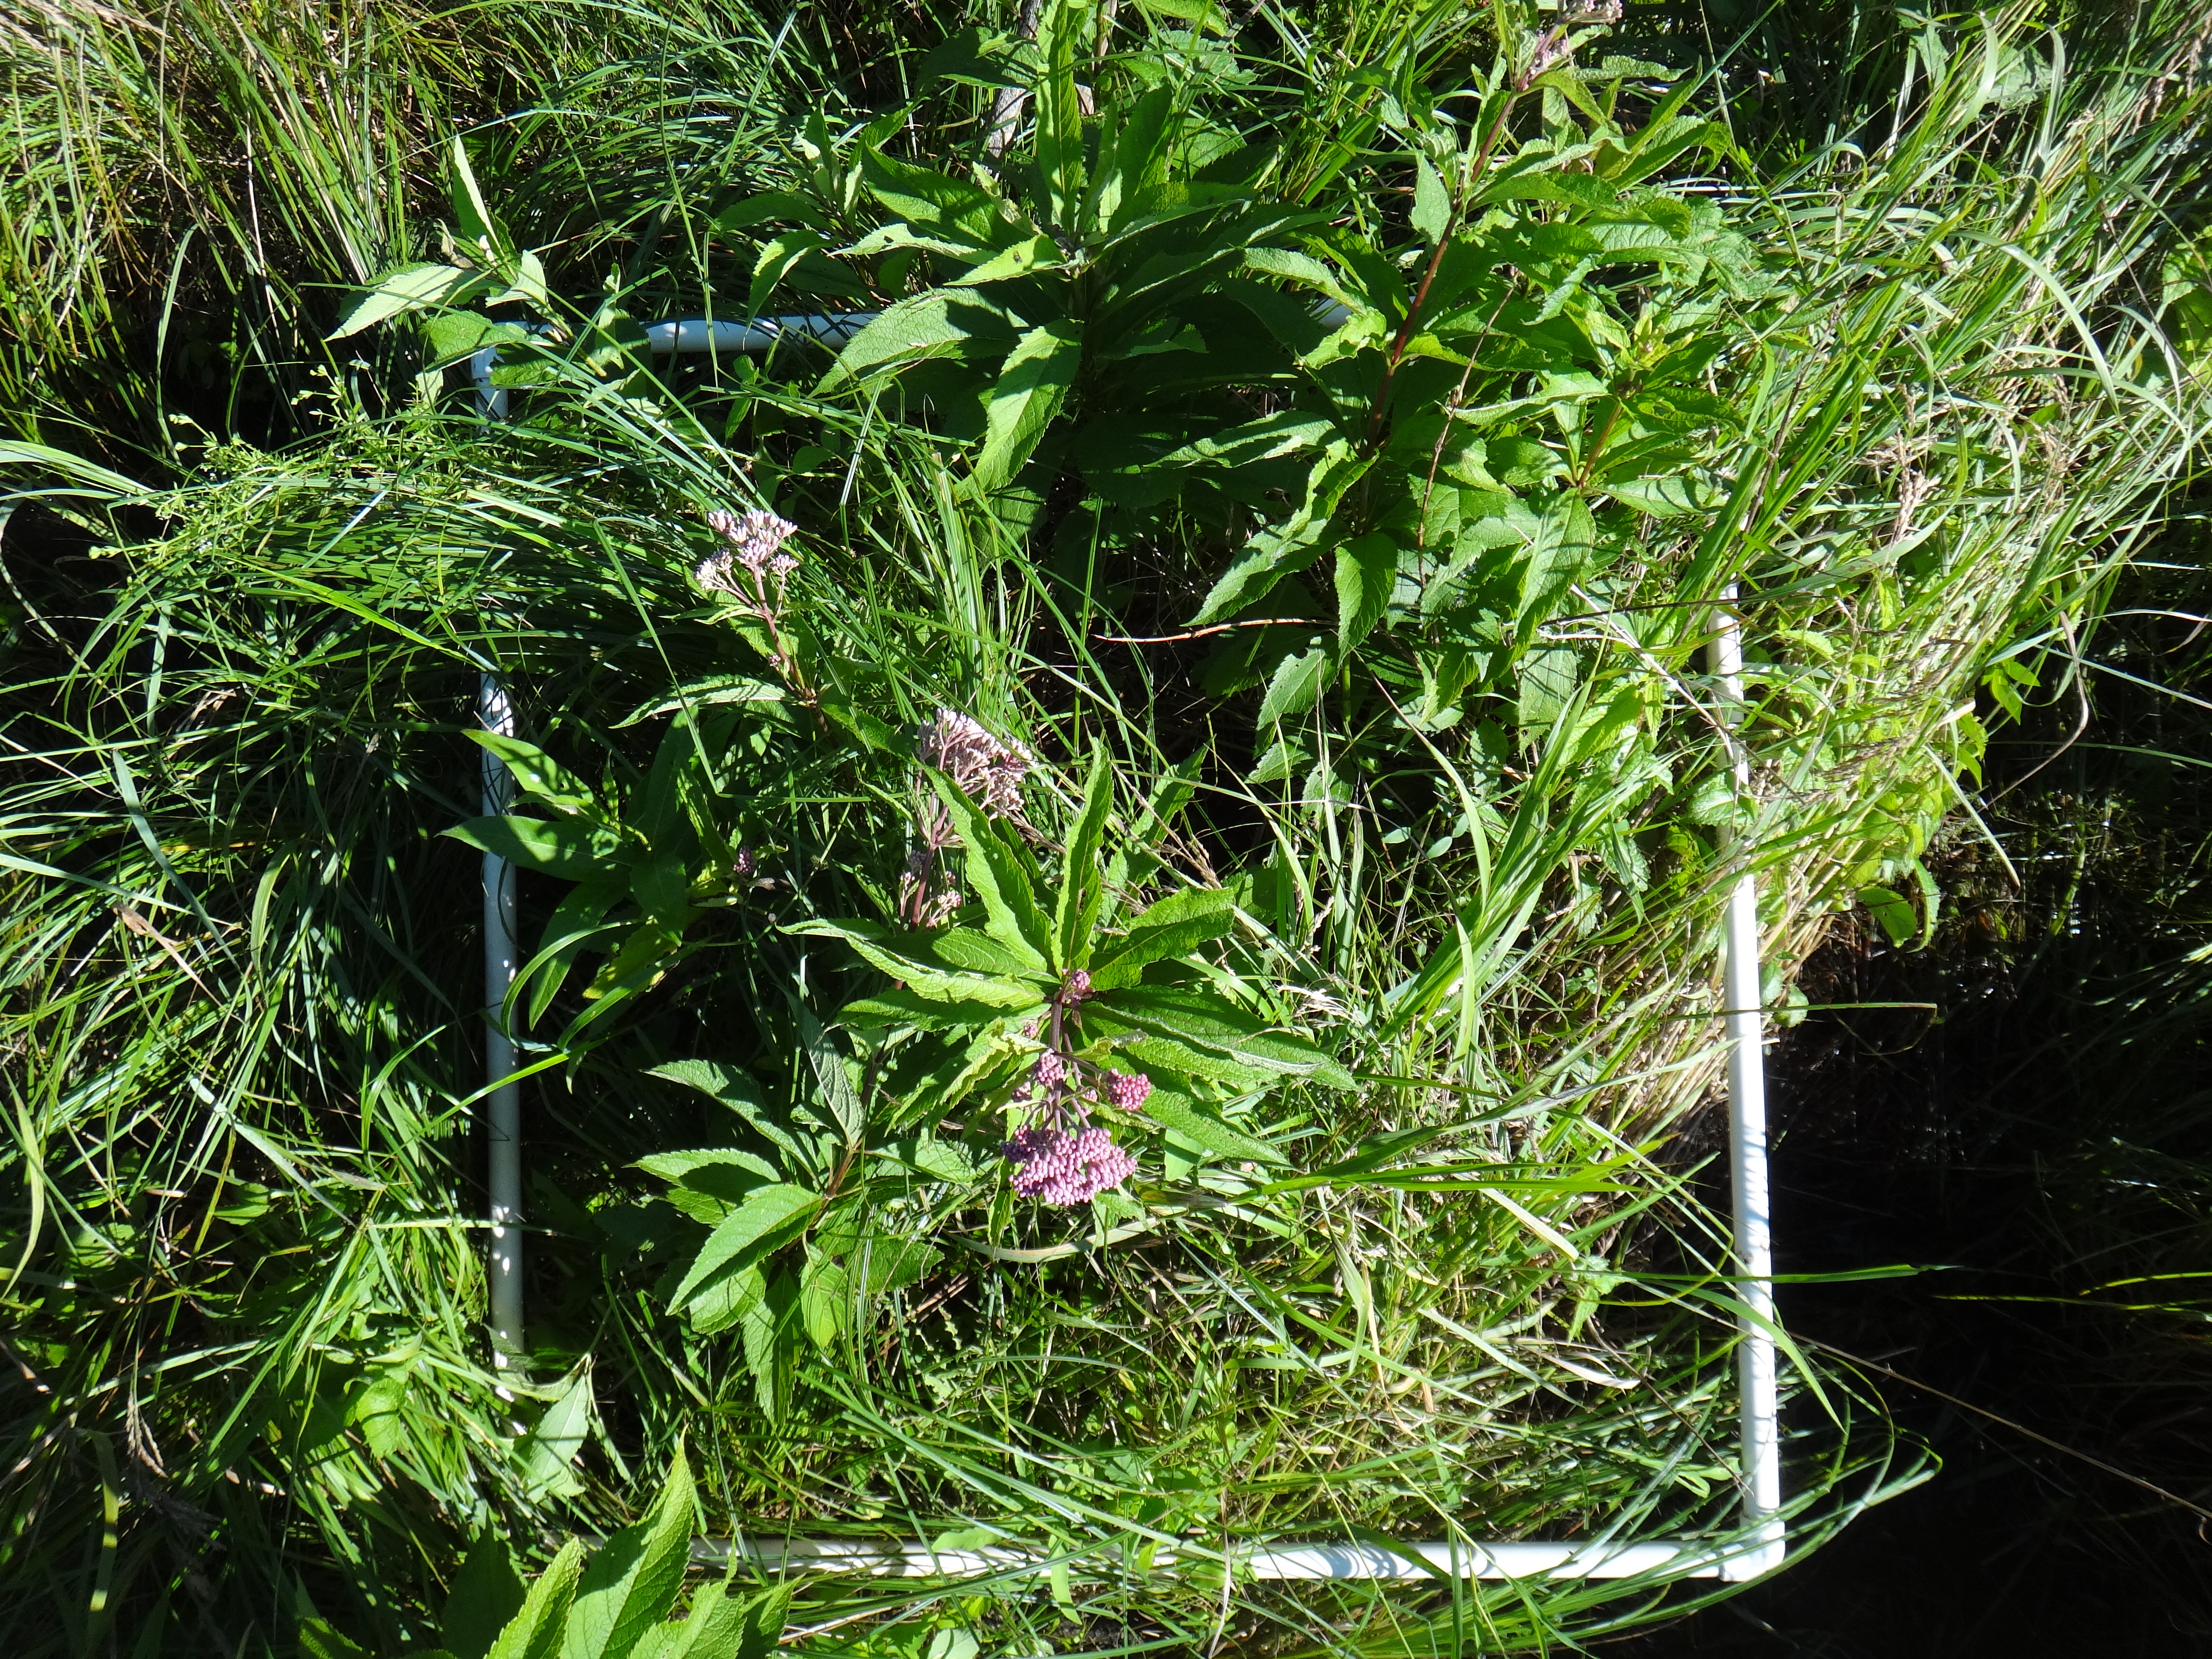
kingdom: Plantae
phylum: Tracheophyta
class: Liliopsida
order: Poales
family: Cyperaceae
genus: Carex
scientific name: Carex stricta
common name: Hummock sedge
